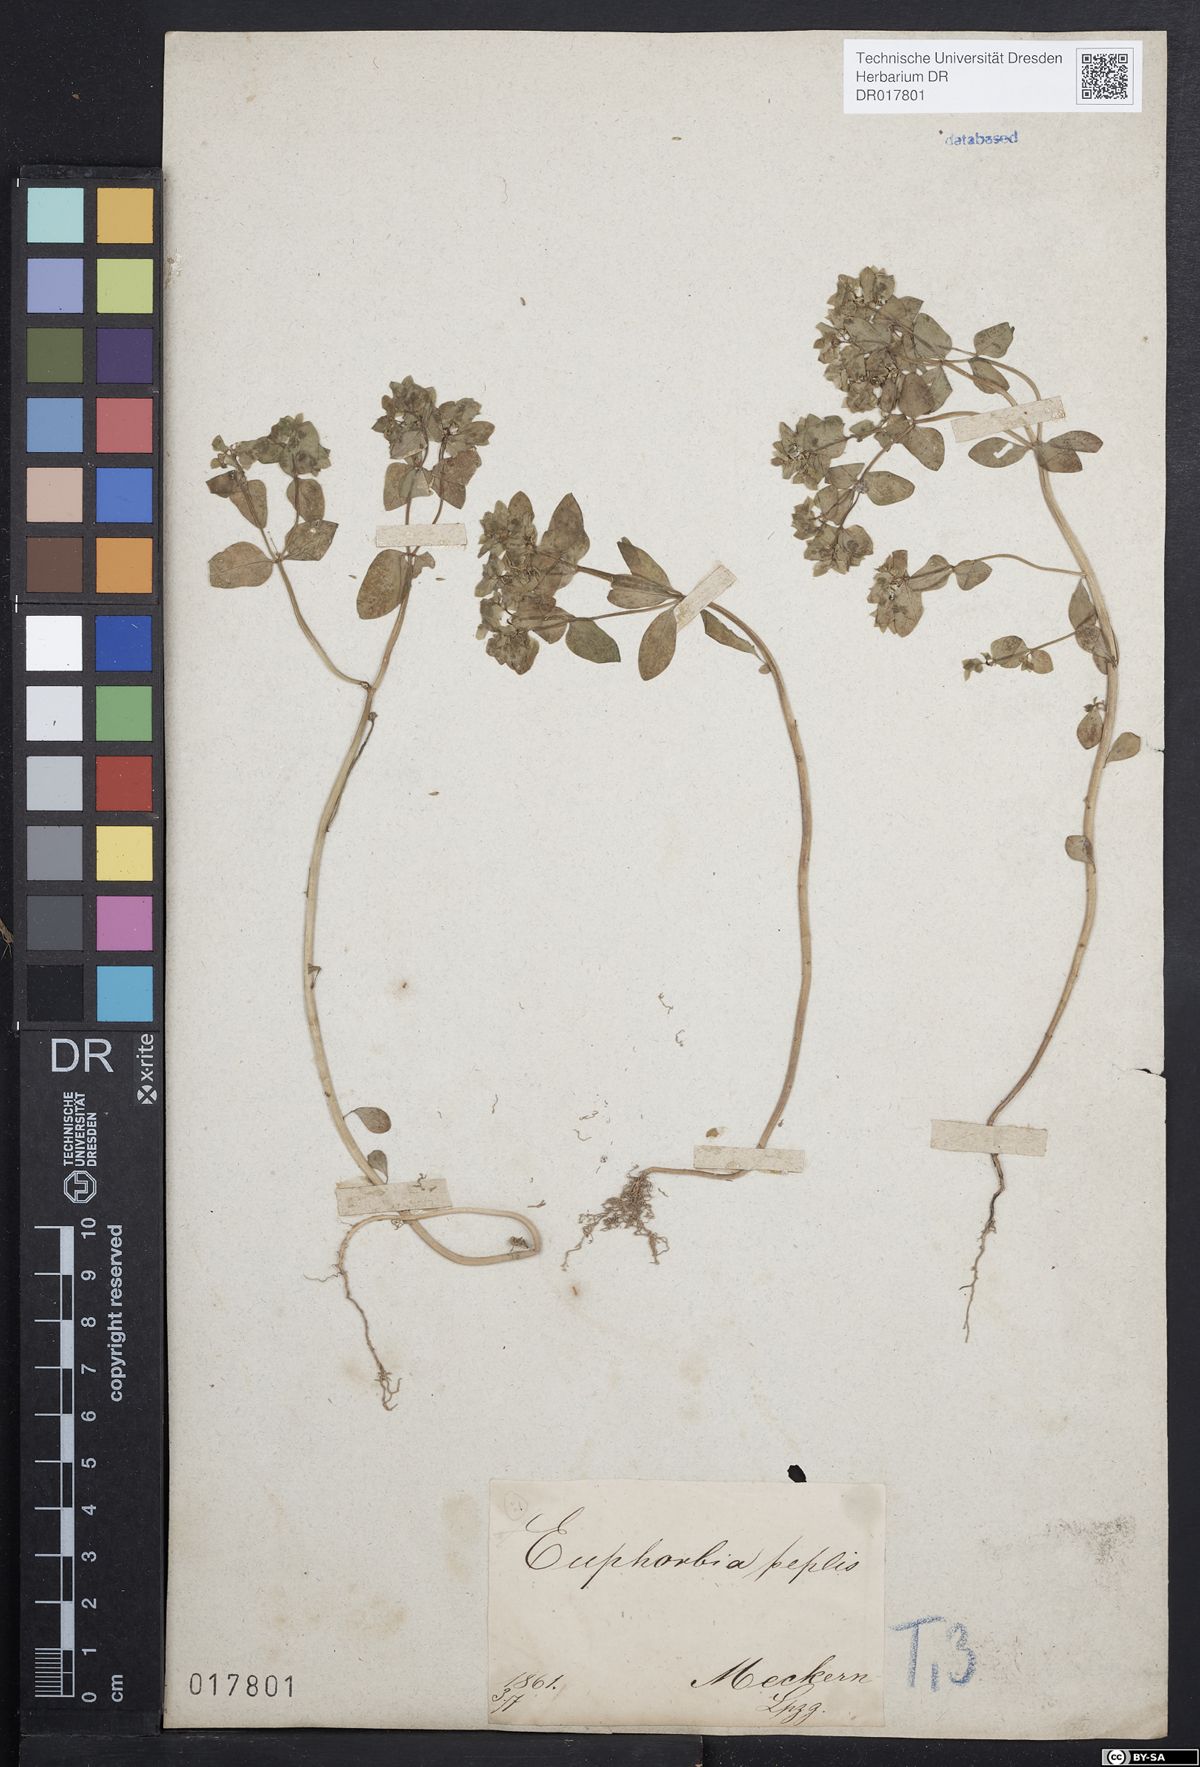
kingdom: Plantae
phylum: Tracheophyta
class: Magnoliopsida
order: Malpighiales
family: Euphorbiaceae
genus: Euphorbia
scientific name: Euphorbia peplus
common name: Petty spurge
